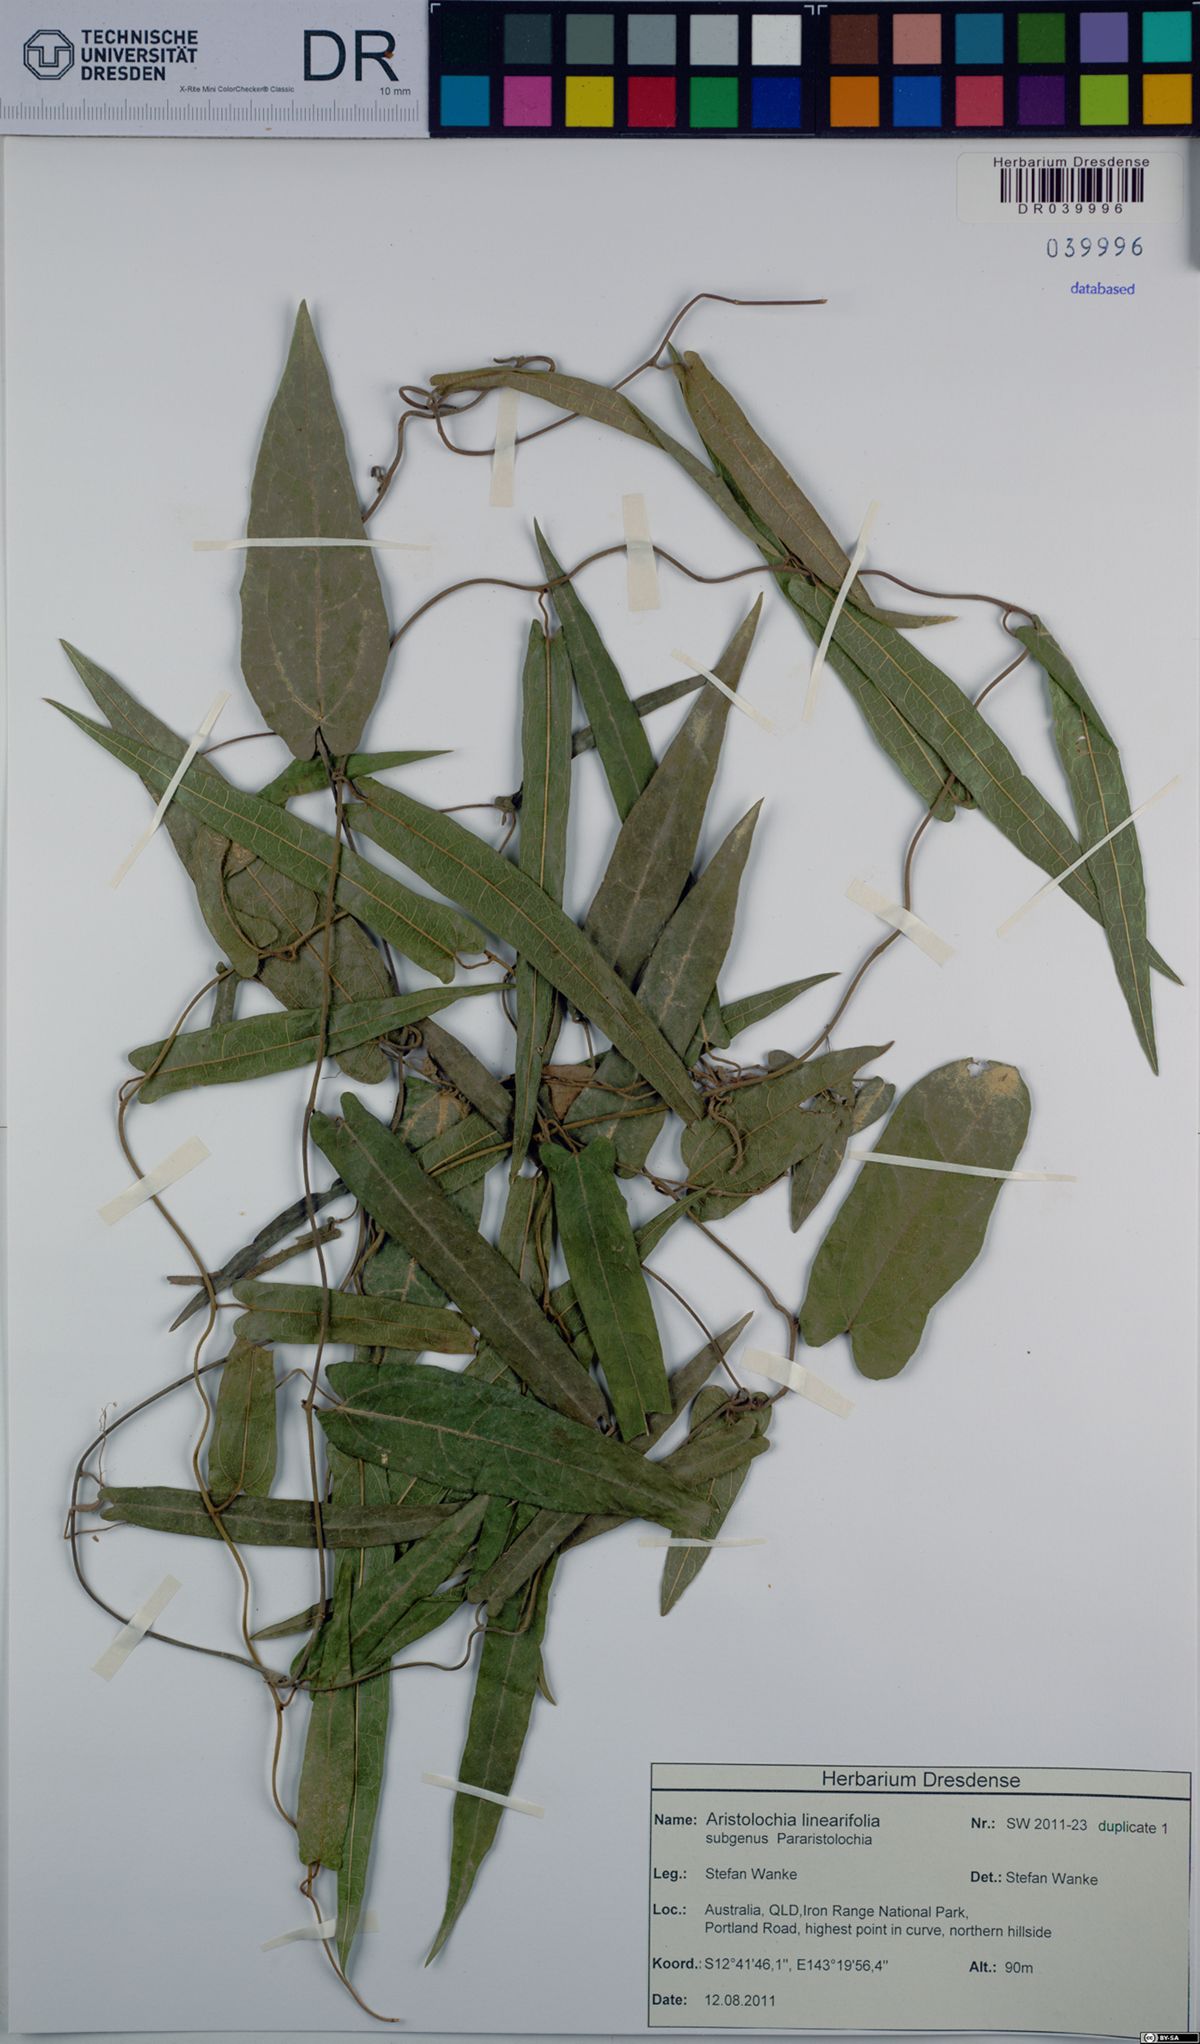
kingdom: Plantae
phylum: Tracheophyta
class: Magnoliopsida
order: Piperales
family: Aristolochiaceae
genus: Aristolochia
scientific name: Aristolochia linearifolia
